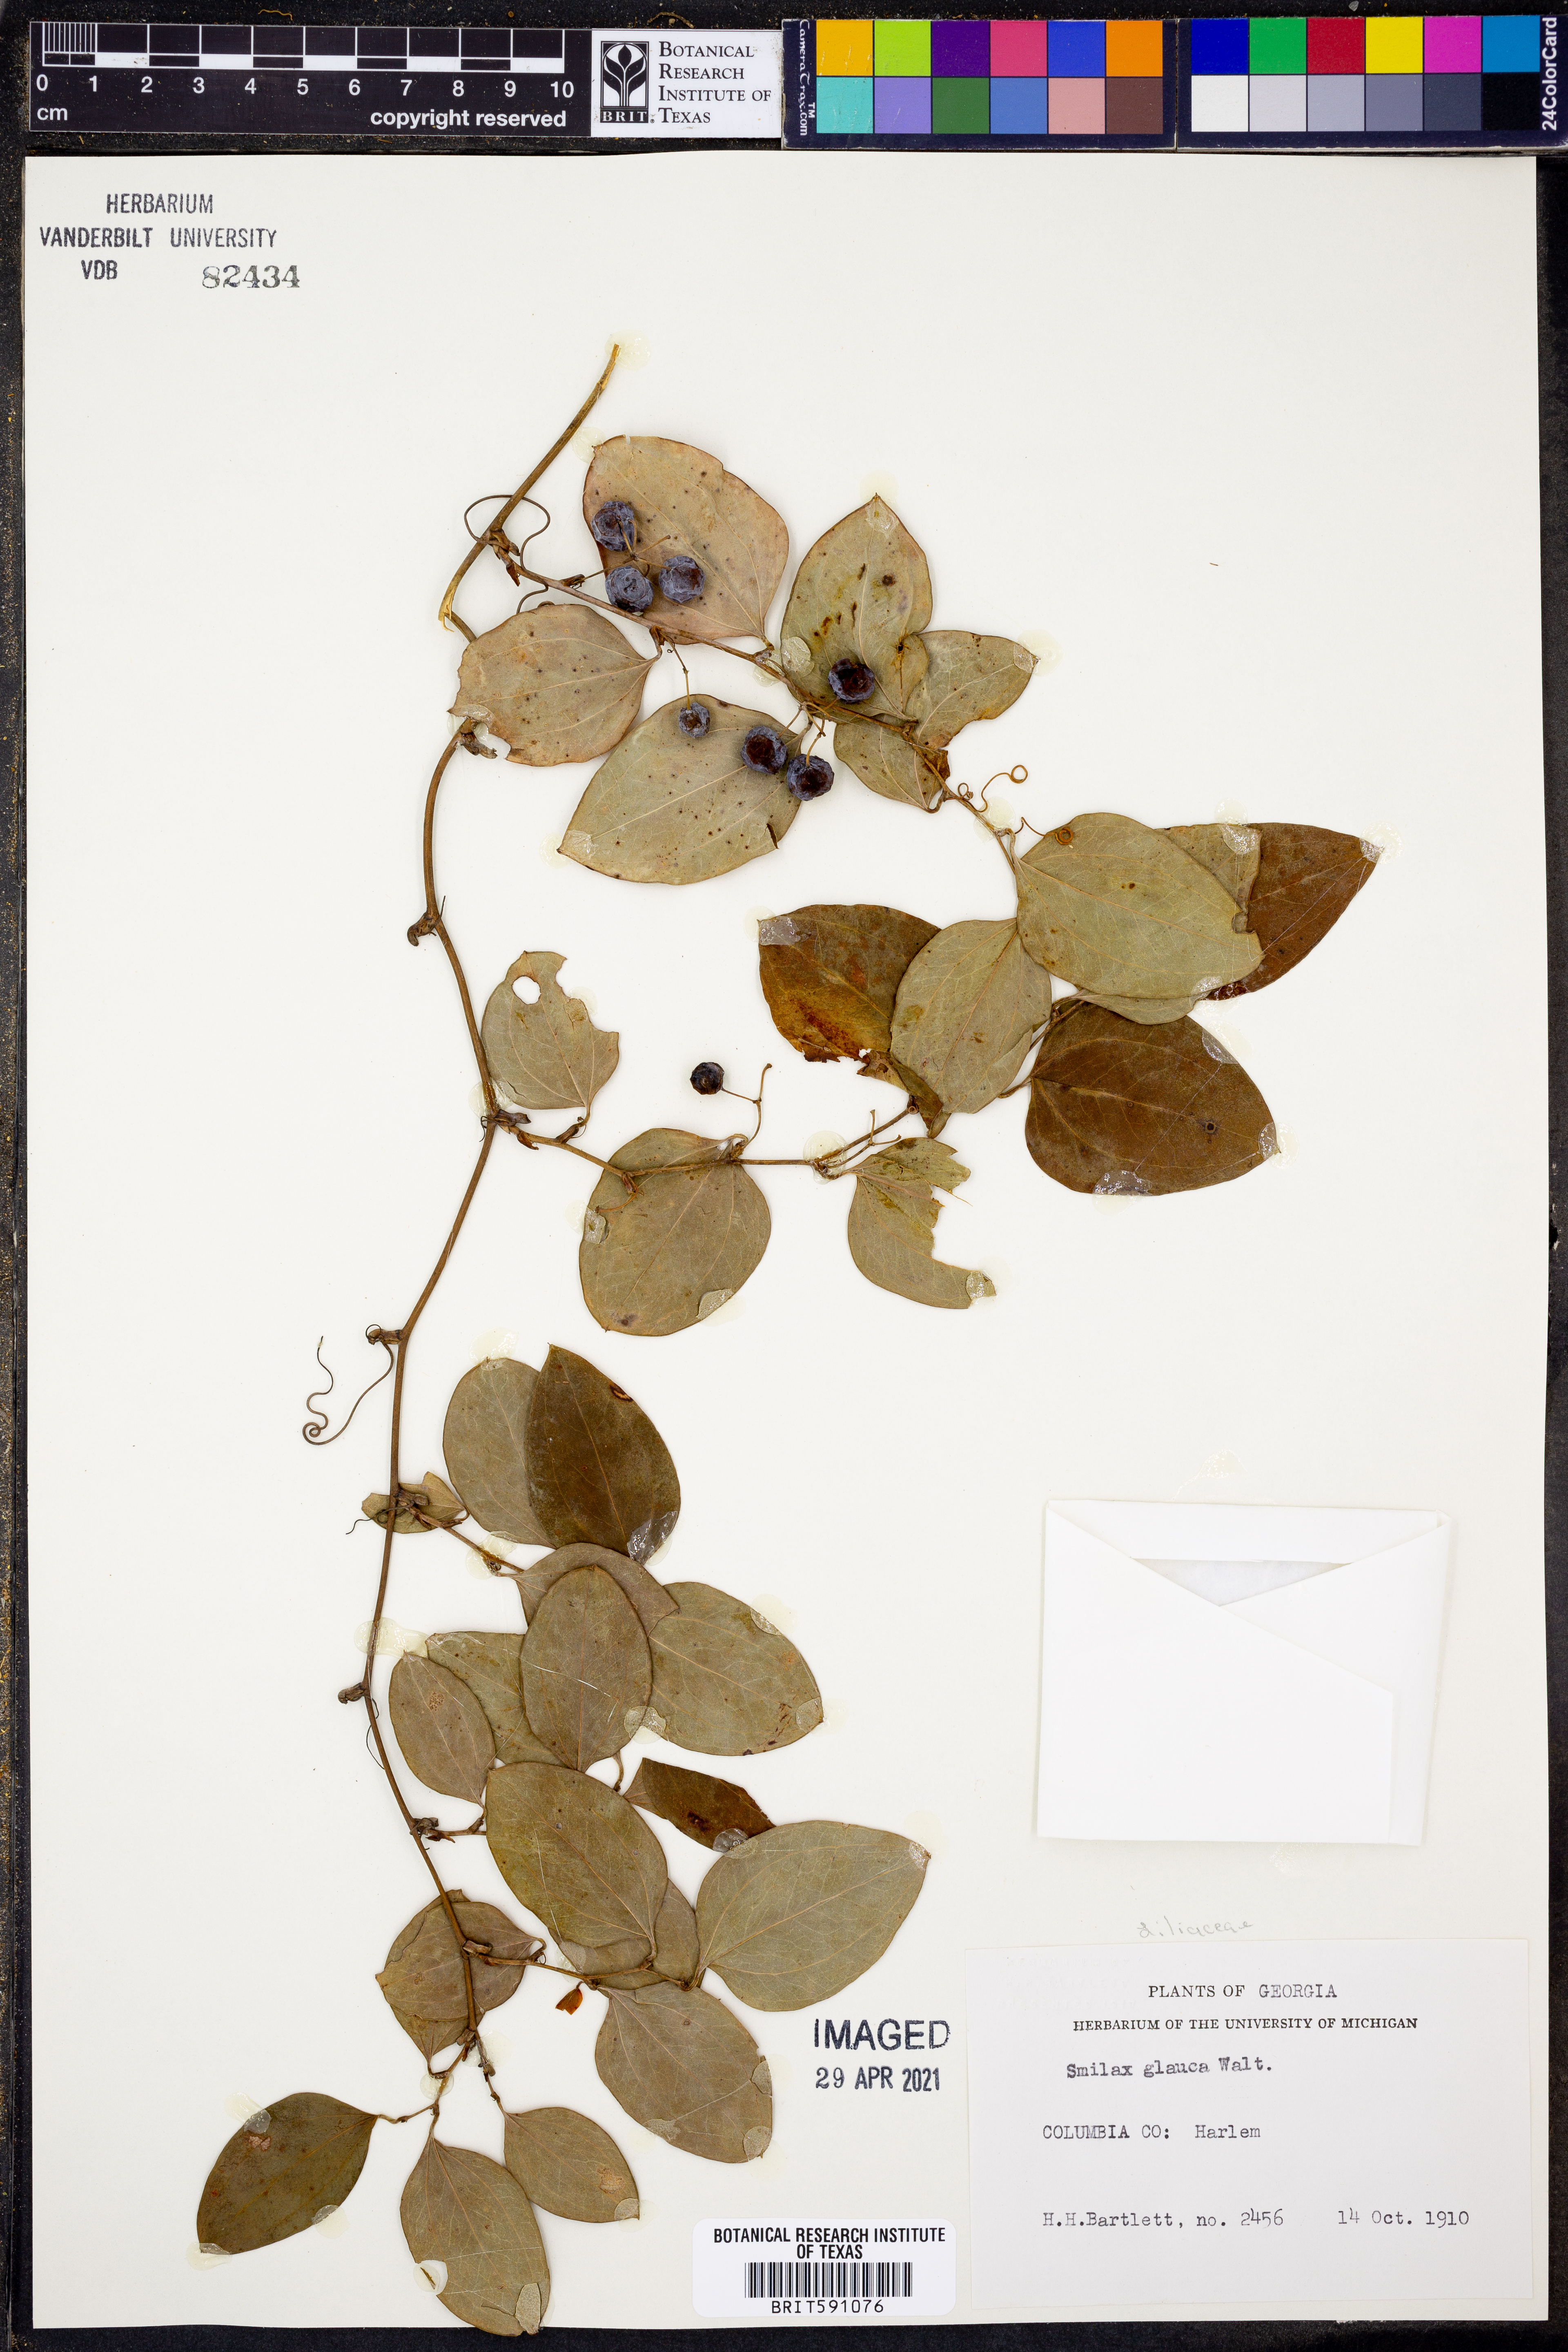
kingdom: Plantae
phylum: Tracheophyta
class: Liliopsida
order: Liliales
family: Smilacaceae
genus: Smilax
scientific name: Smilax glauca
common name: Cat greenbrier
